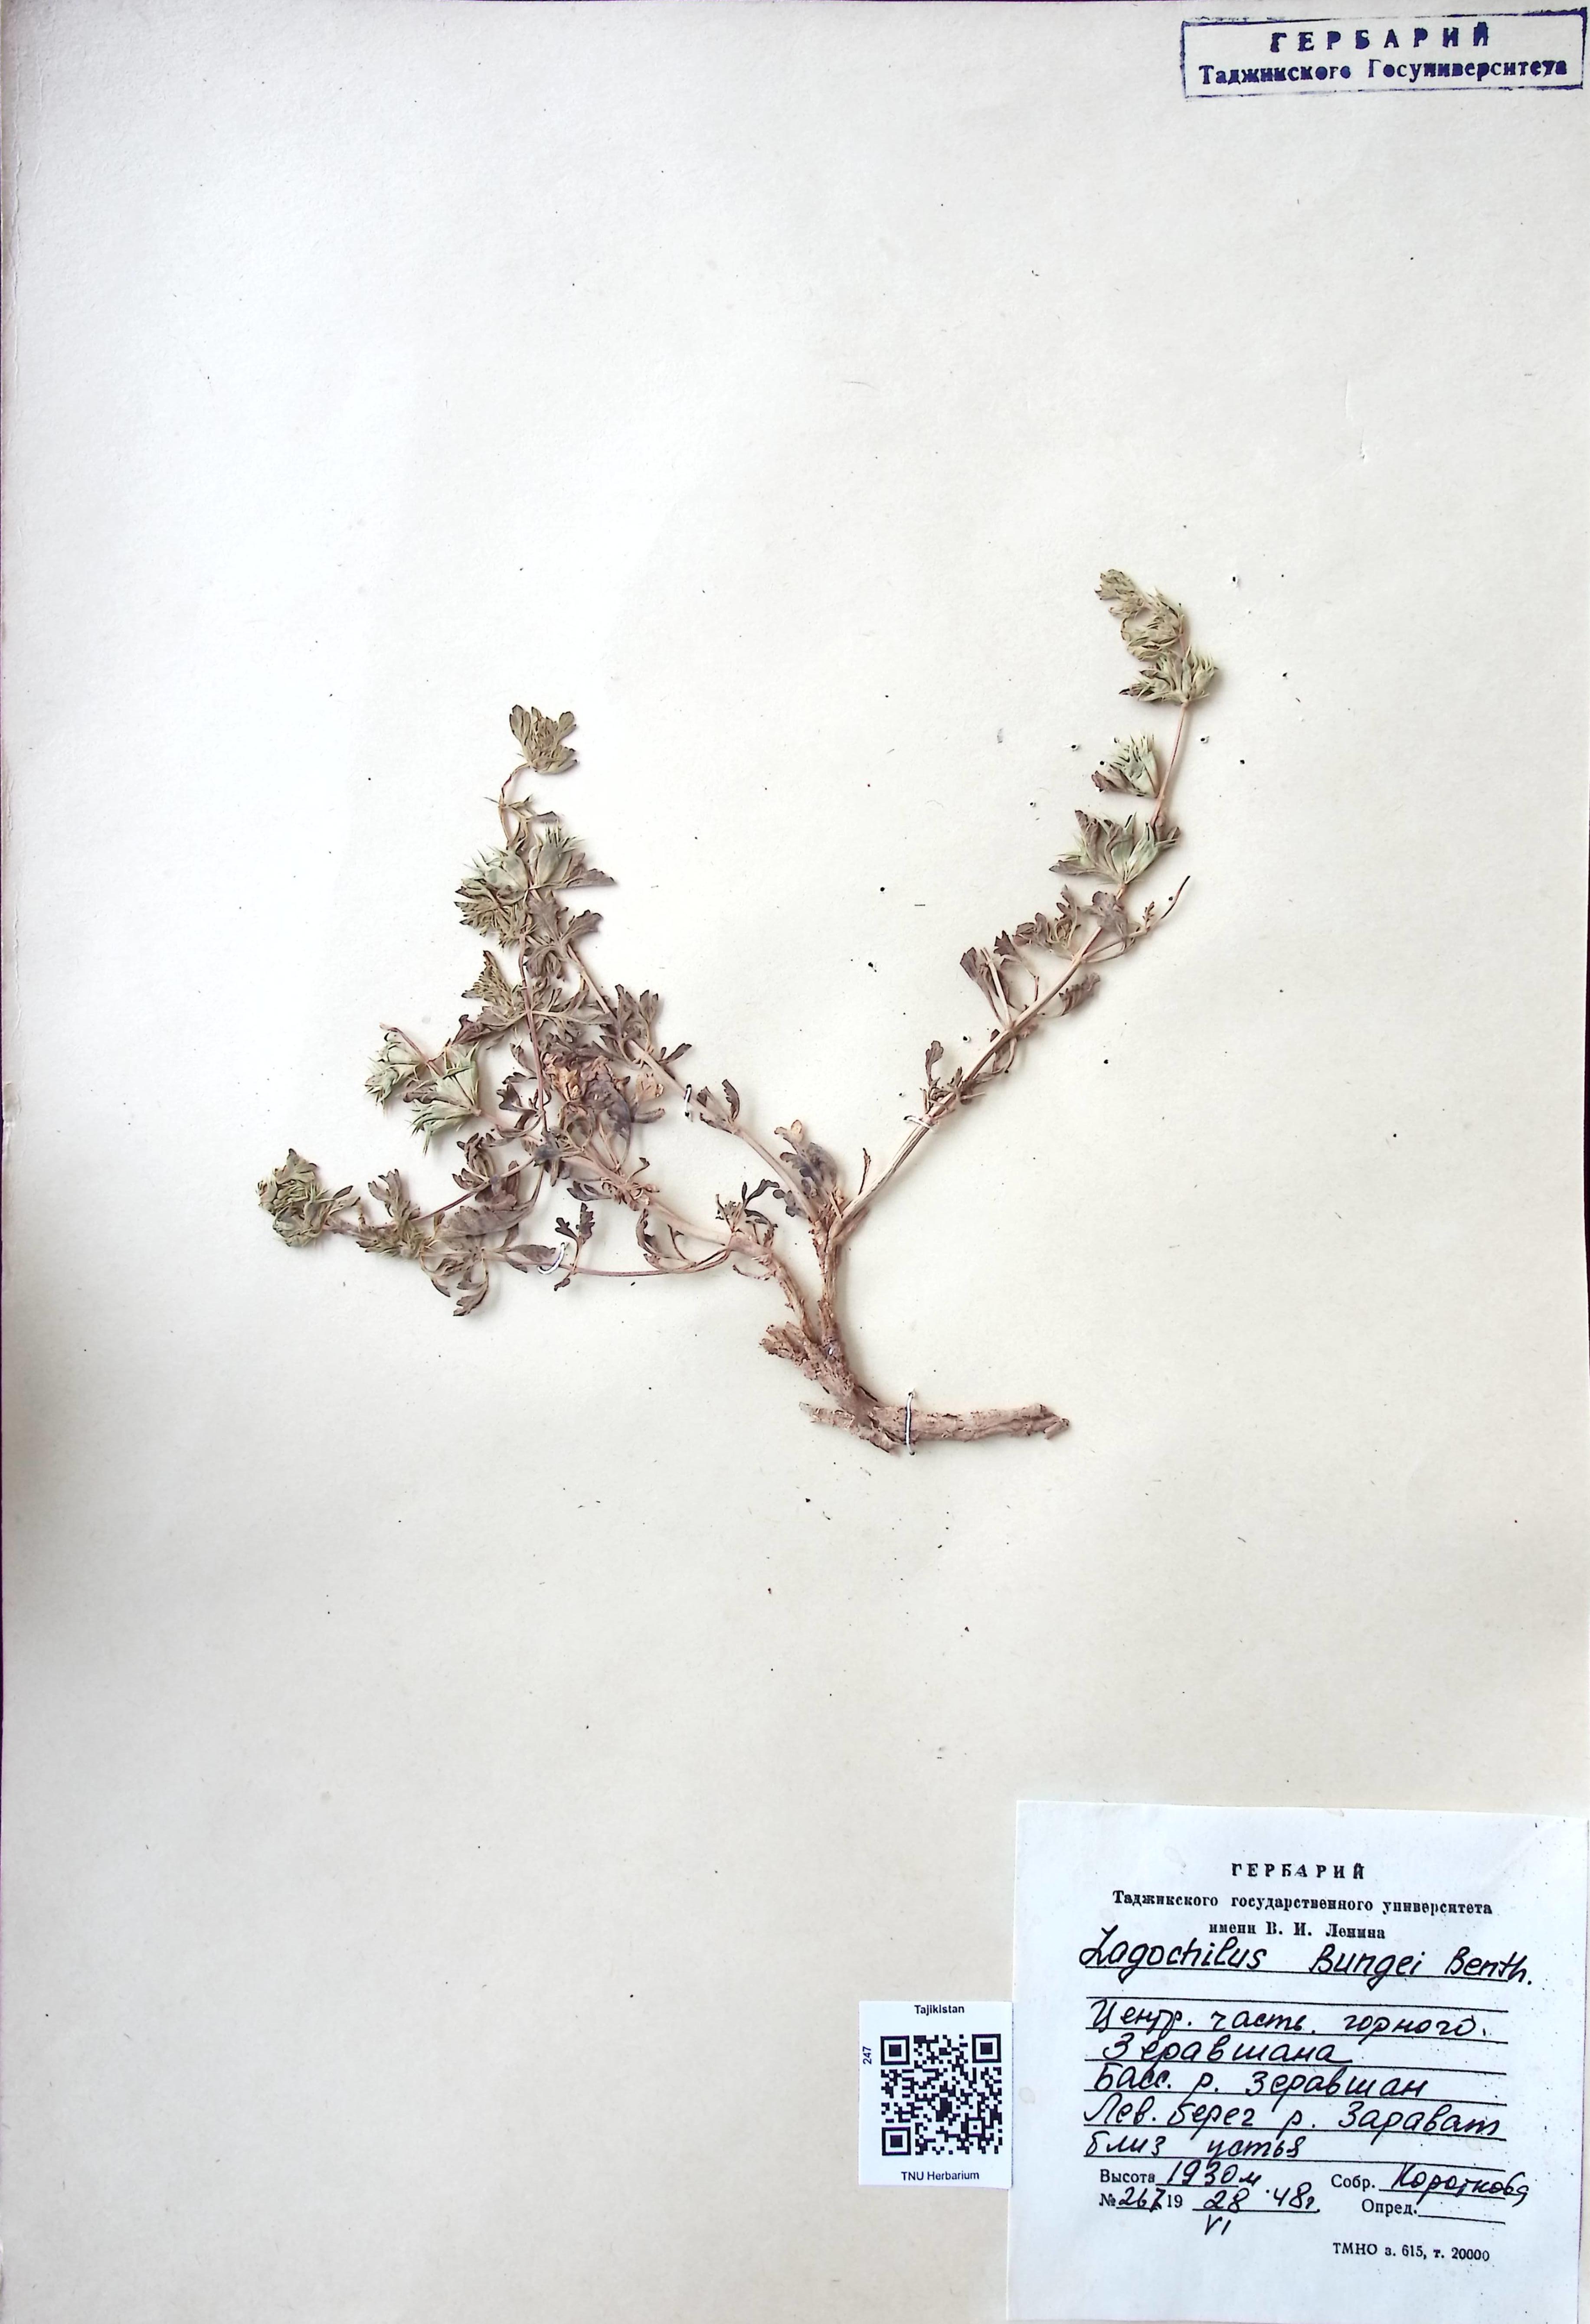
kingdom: Plantae
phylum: Tracheophyta
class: Magnoliopsida
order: Lamiales
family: Lamiaceae
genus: Lagochilus
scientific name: Lagochilus
